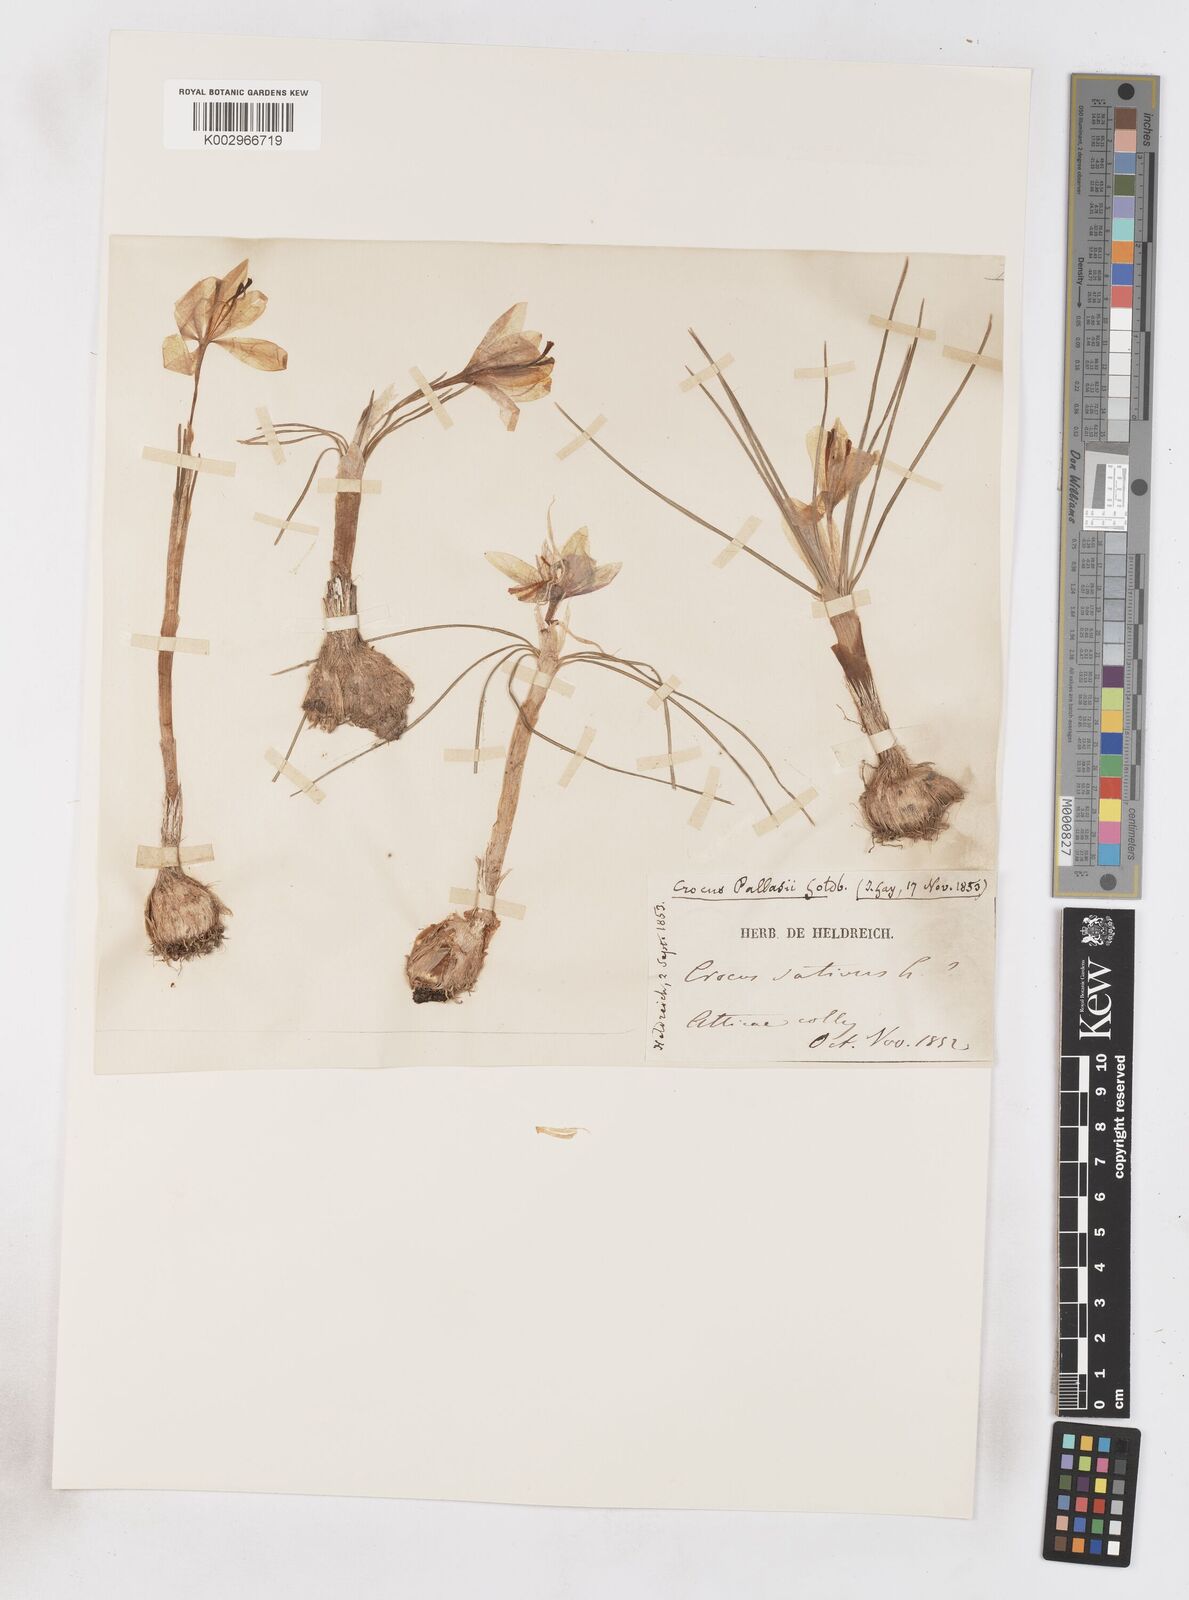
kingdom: Plantae
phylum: Tracheophyta
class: Liliopsida
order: Asparagales
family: Iridaceae
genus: Crocus
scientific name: Crocus cartwrightianus
